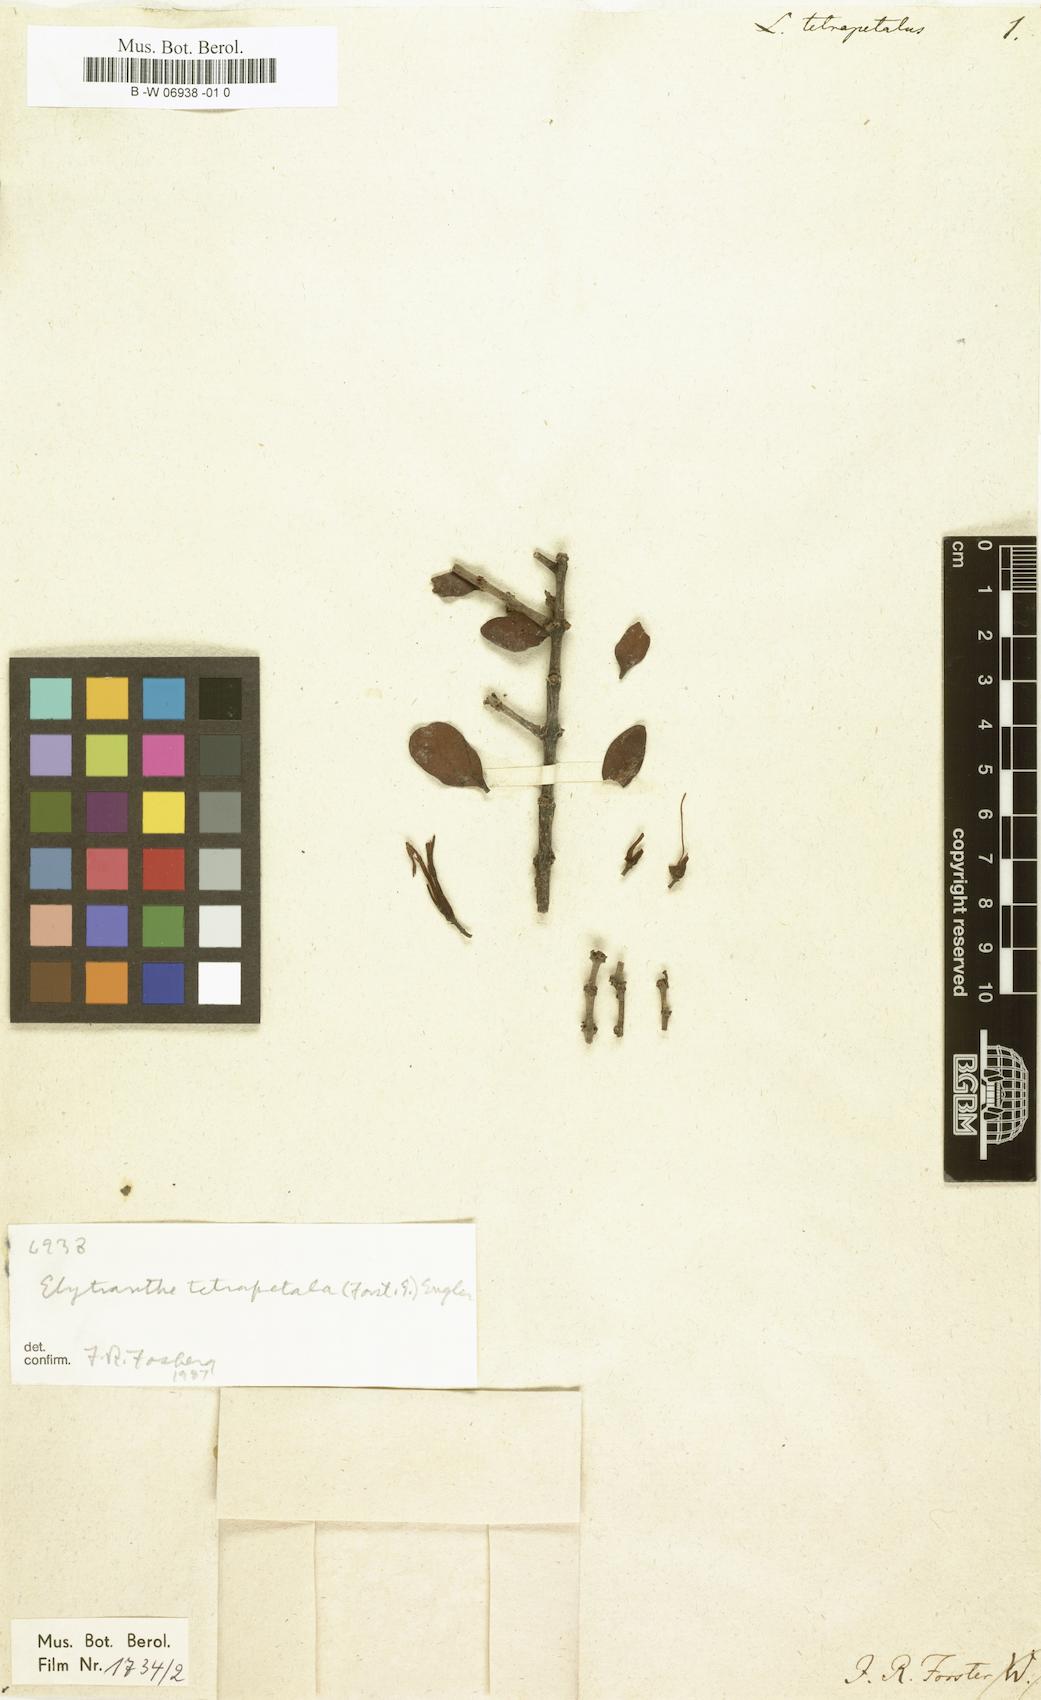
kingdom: Plantae
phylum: Tracheophyta
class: Magnoliopsida
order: Santalales
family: Loranthaceae
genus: Peraxilla
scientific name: Peraxilla tetrapetala
